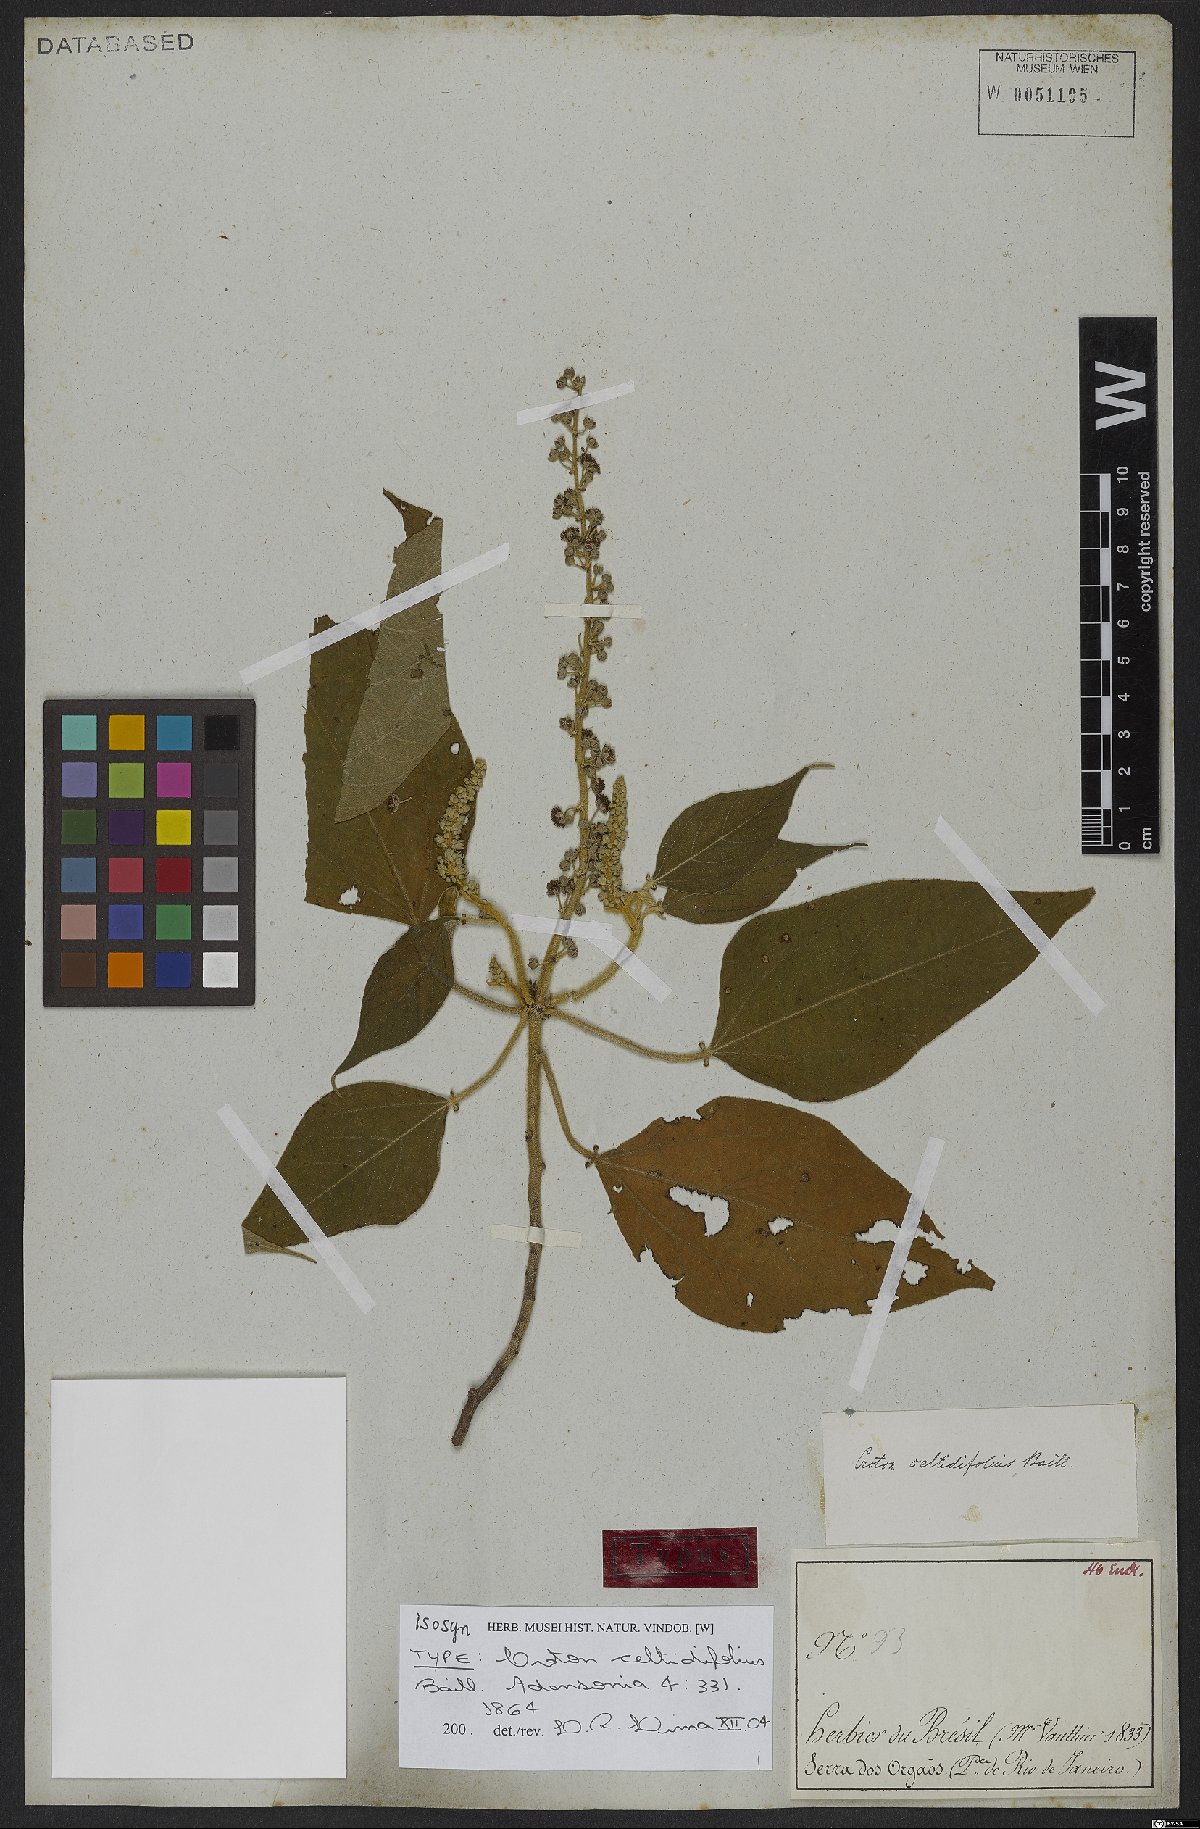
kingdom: Plantae
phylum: Tracheophyta
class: Magnoliopsida
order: Malpighiales
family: Euphorbiaceae
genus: Croton
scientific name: Croton celtidifolius
